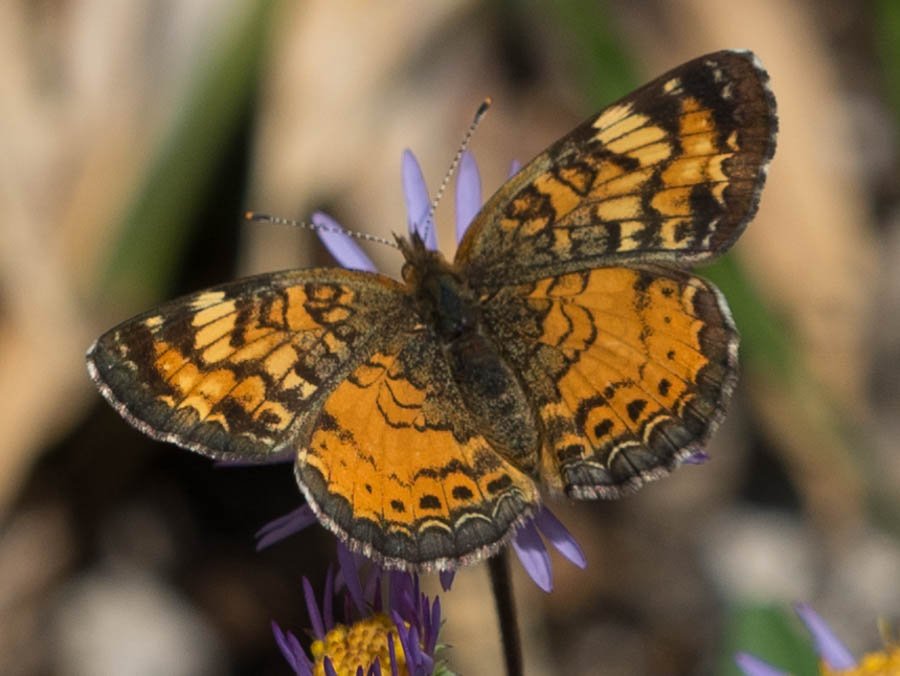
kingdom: Animalia
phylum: Arthropoda
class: Insecta
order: Lepidoptera
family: Nymphalidae
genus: Phyciodes
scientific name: Phyciodes tharos
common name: Northern Crescent
